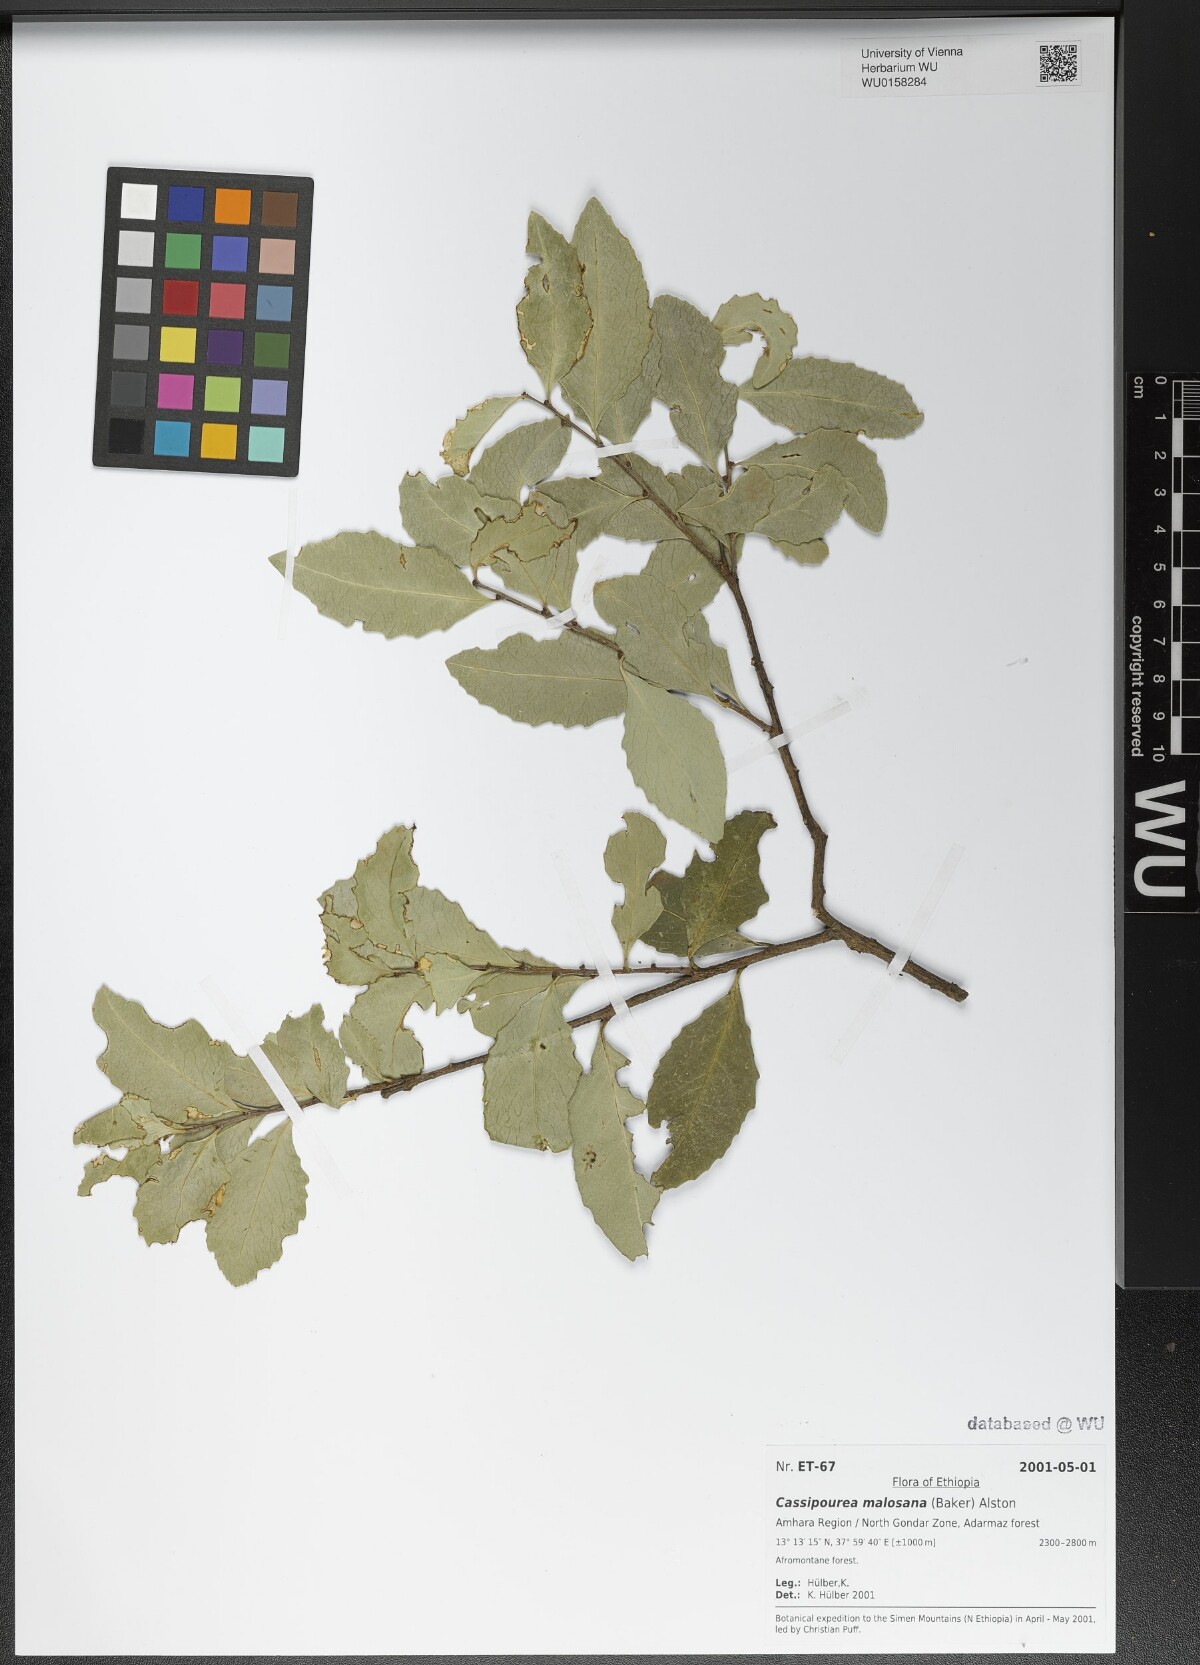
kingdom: Plantae
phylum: Tracheophyta
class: Magnoliopsida
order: Malpighiales
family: Rhizophoraceae
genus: Cassipourea
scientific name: Cassipourea malosana
